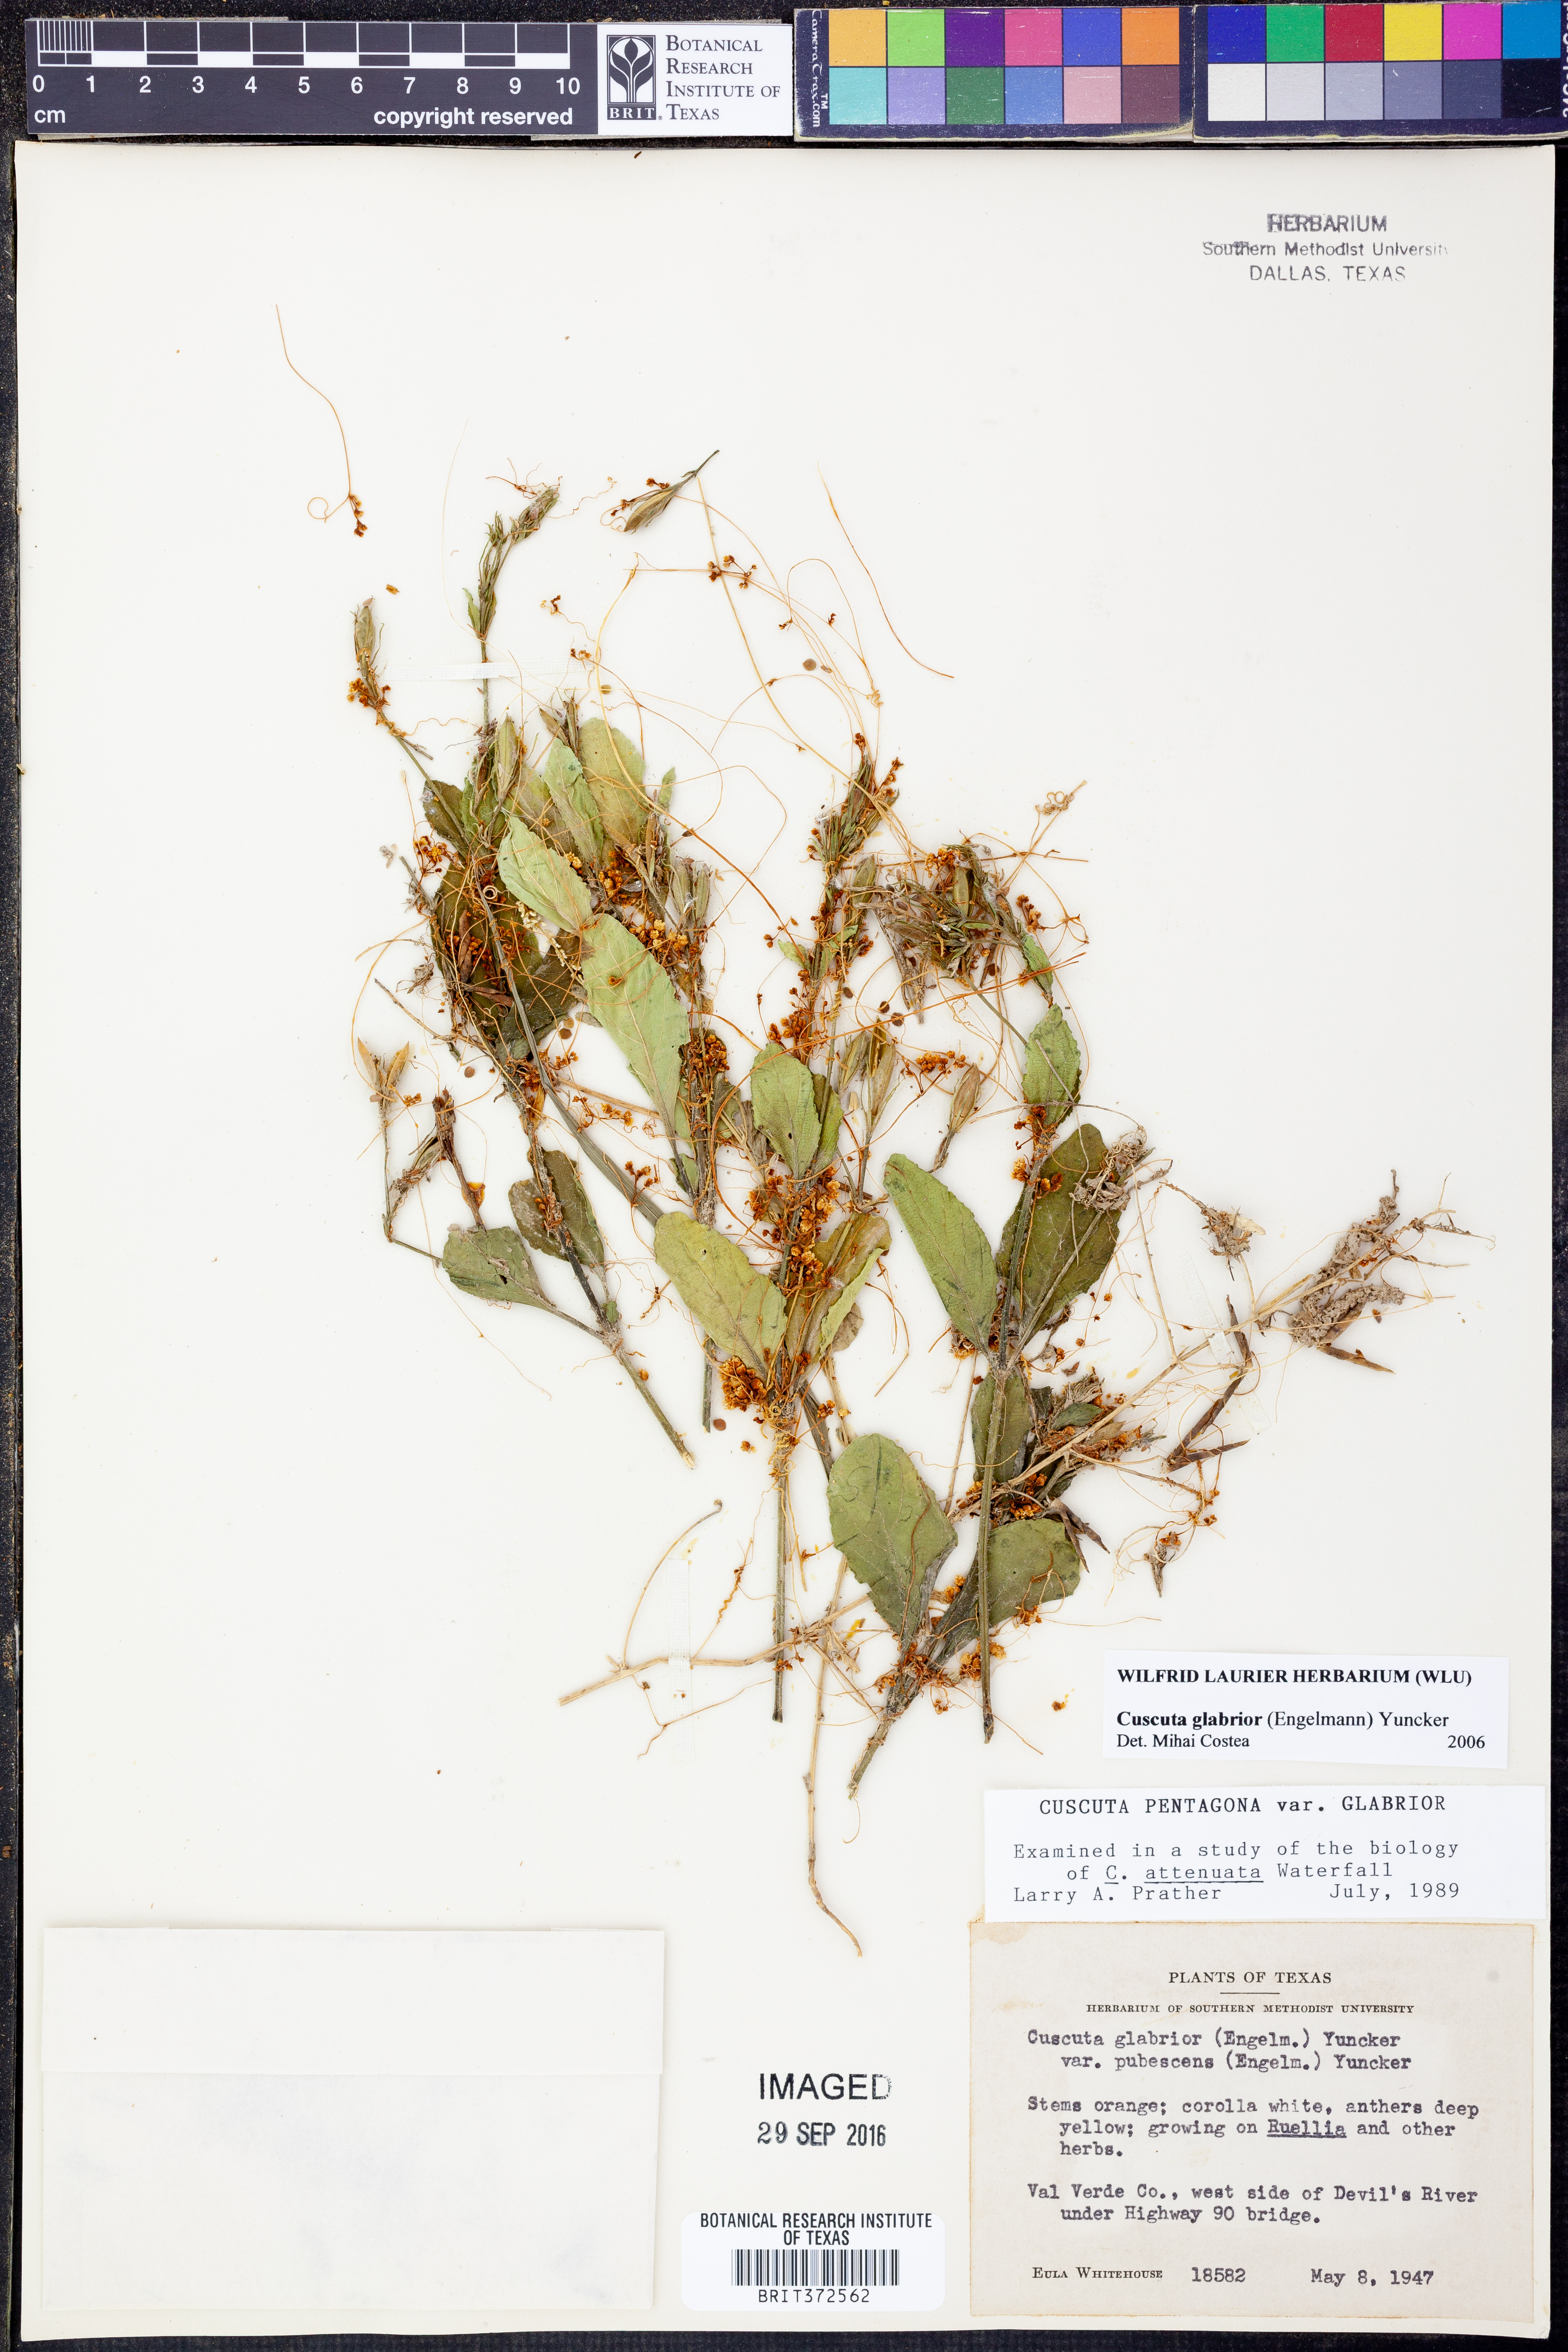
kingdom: Plantae
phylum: Tracheophyta
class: Magnoliopsida
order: Solanales
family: Convolvulaceae
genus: Cuscuta
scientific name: Cuscuta glabrior
